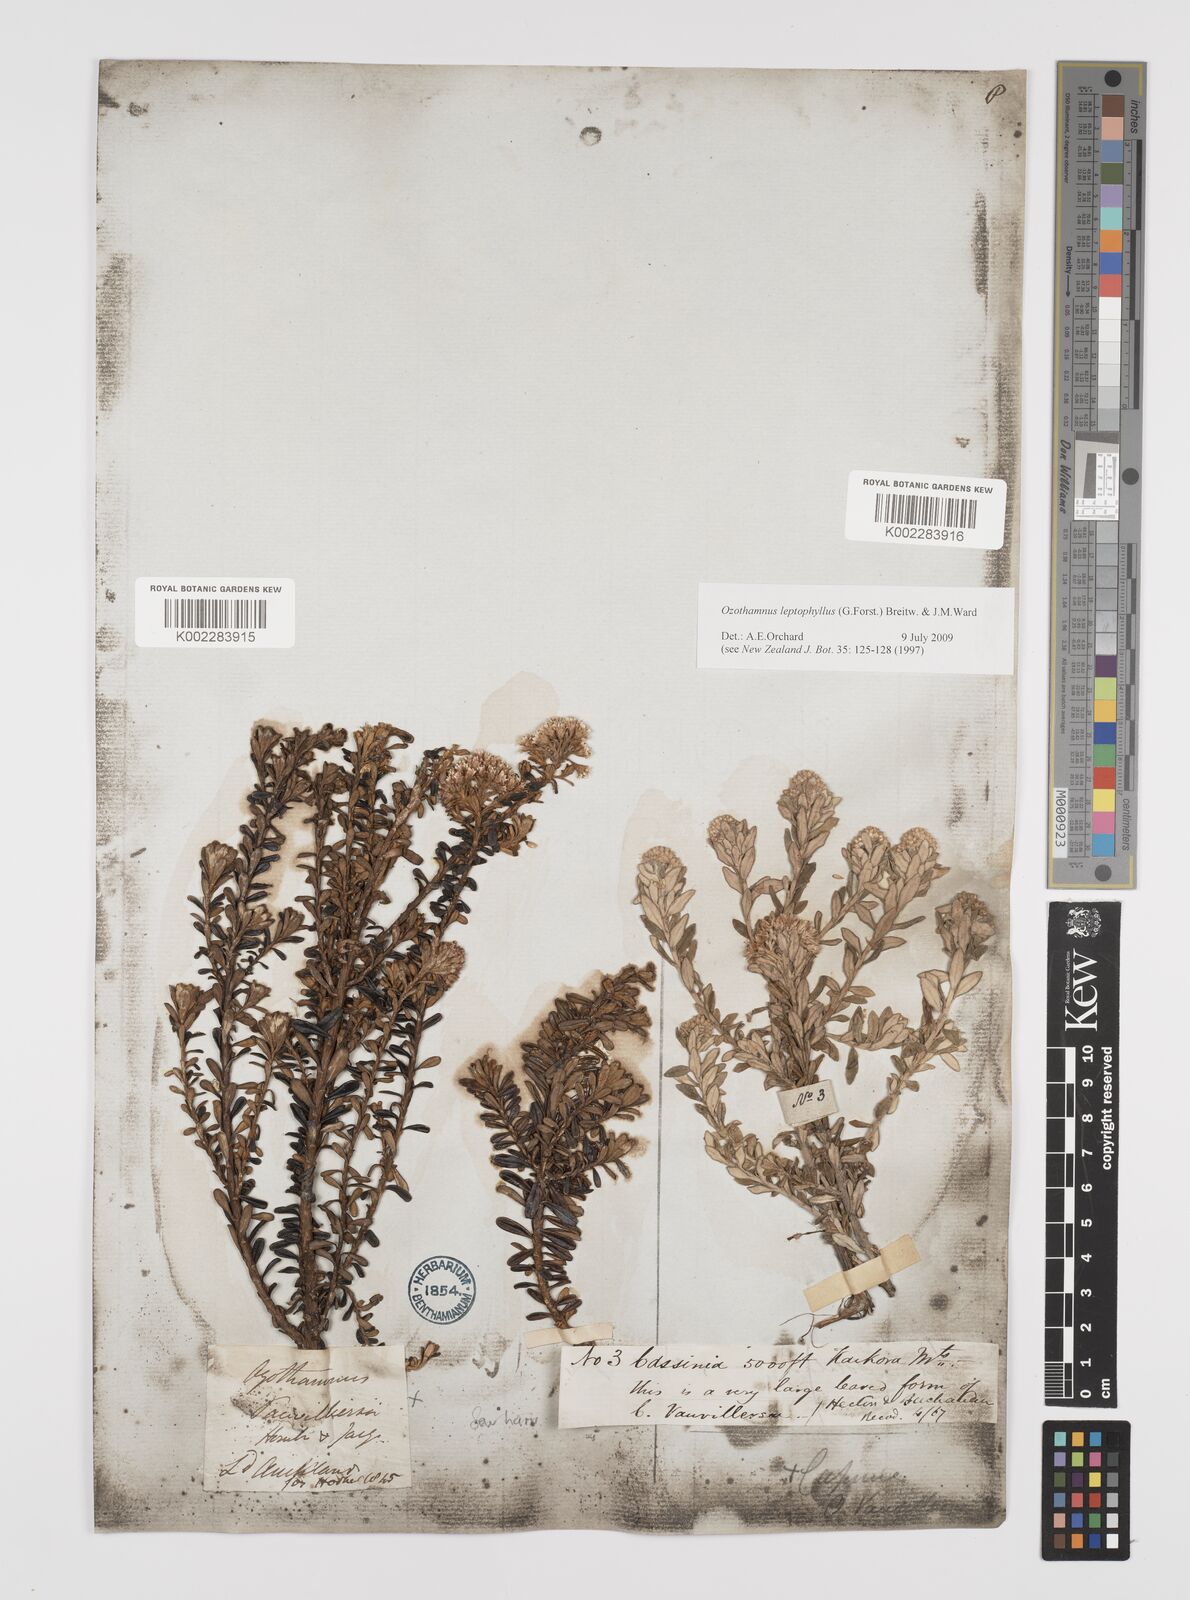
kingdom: Plantae
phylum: Tracheophyta
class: Magnoliopsida
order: Asterales
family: Asteraceae
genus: Ozothamnus
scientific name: Ozothamnus leptophyllus
